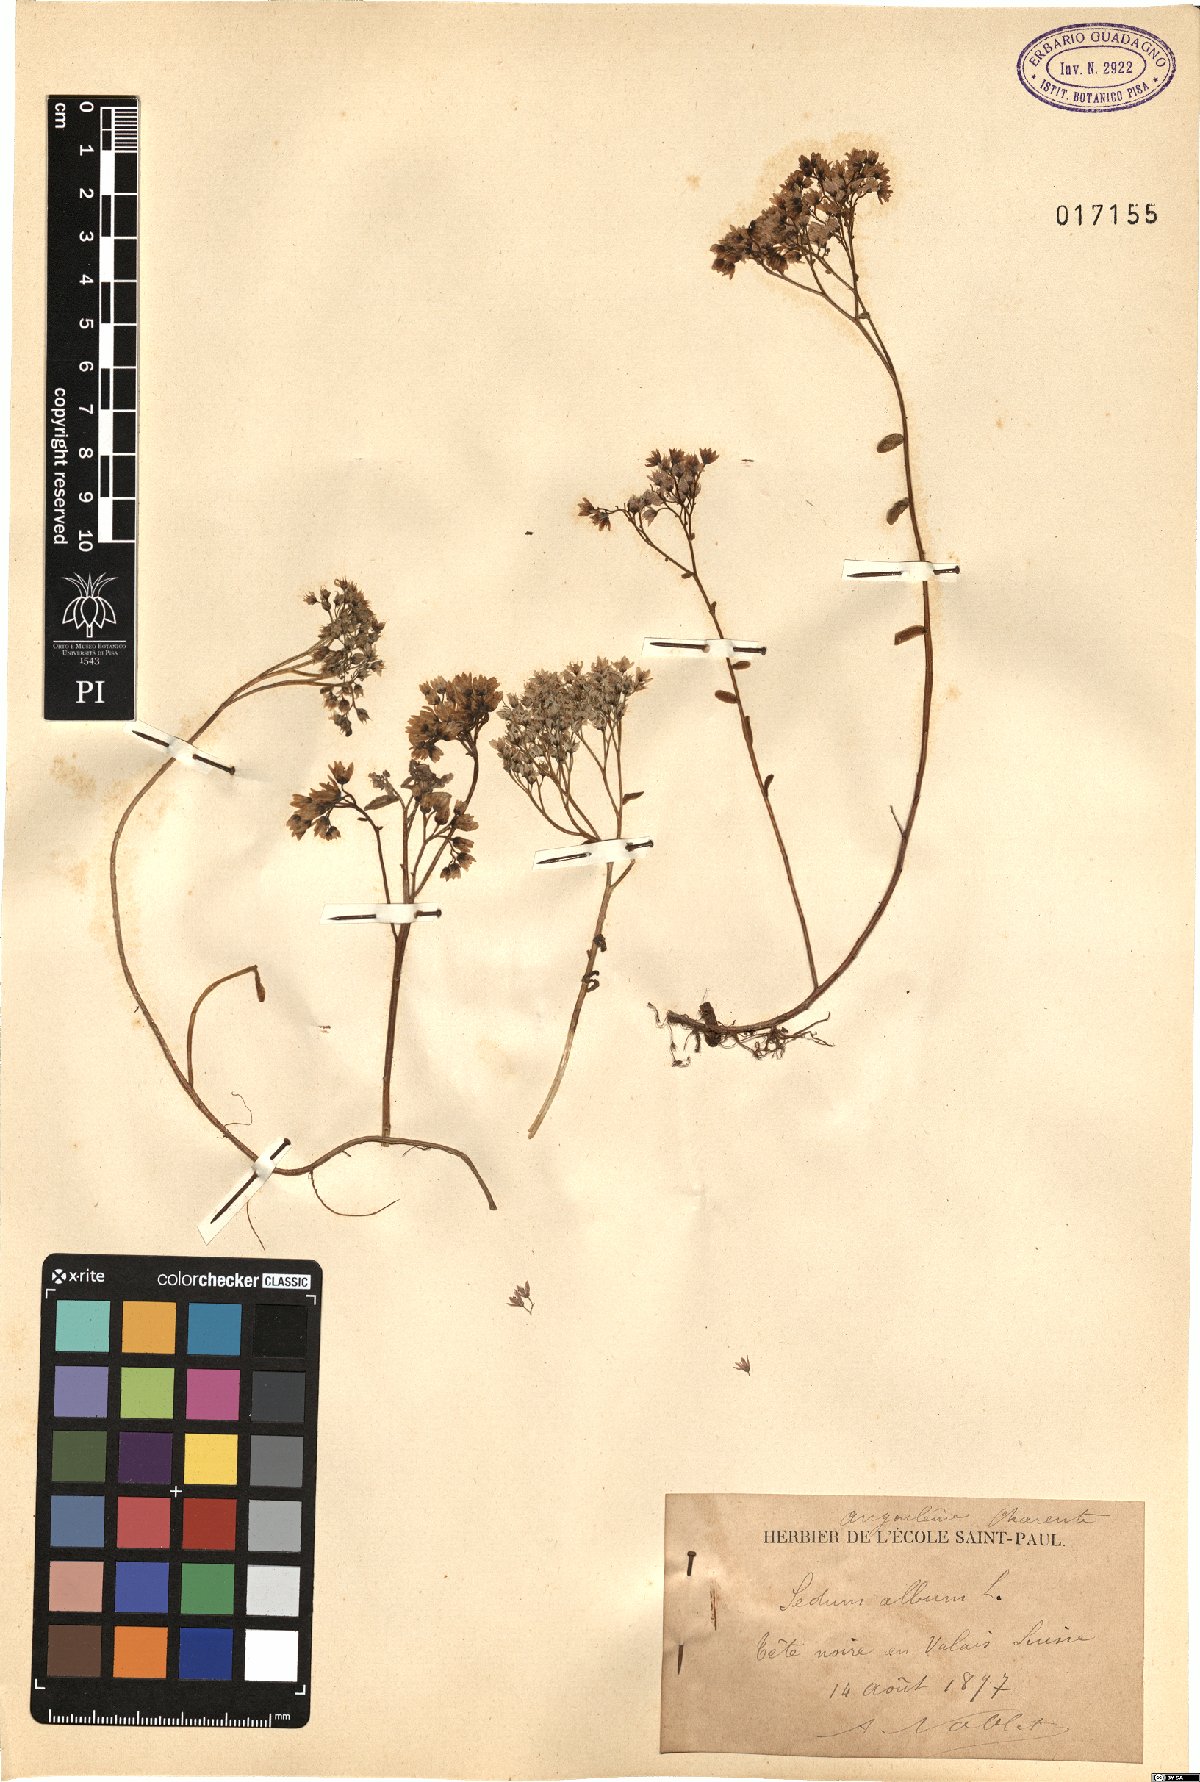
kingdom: Plantae
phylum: Tracheophyta
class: Magnoliopsida
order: Saxifragales
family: Crassulaceae
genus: Sedum
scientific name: Sedum album
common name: White stonecrop
